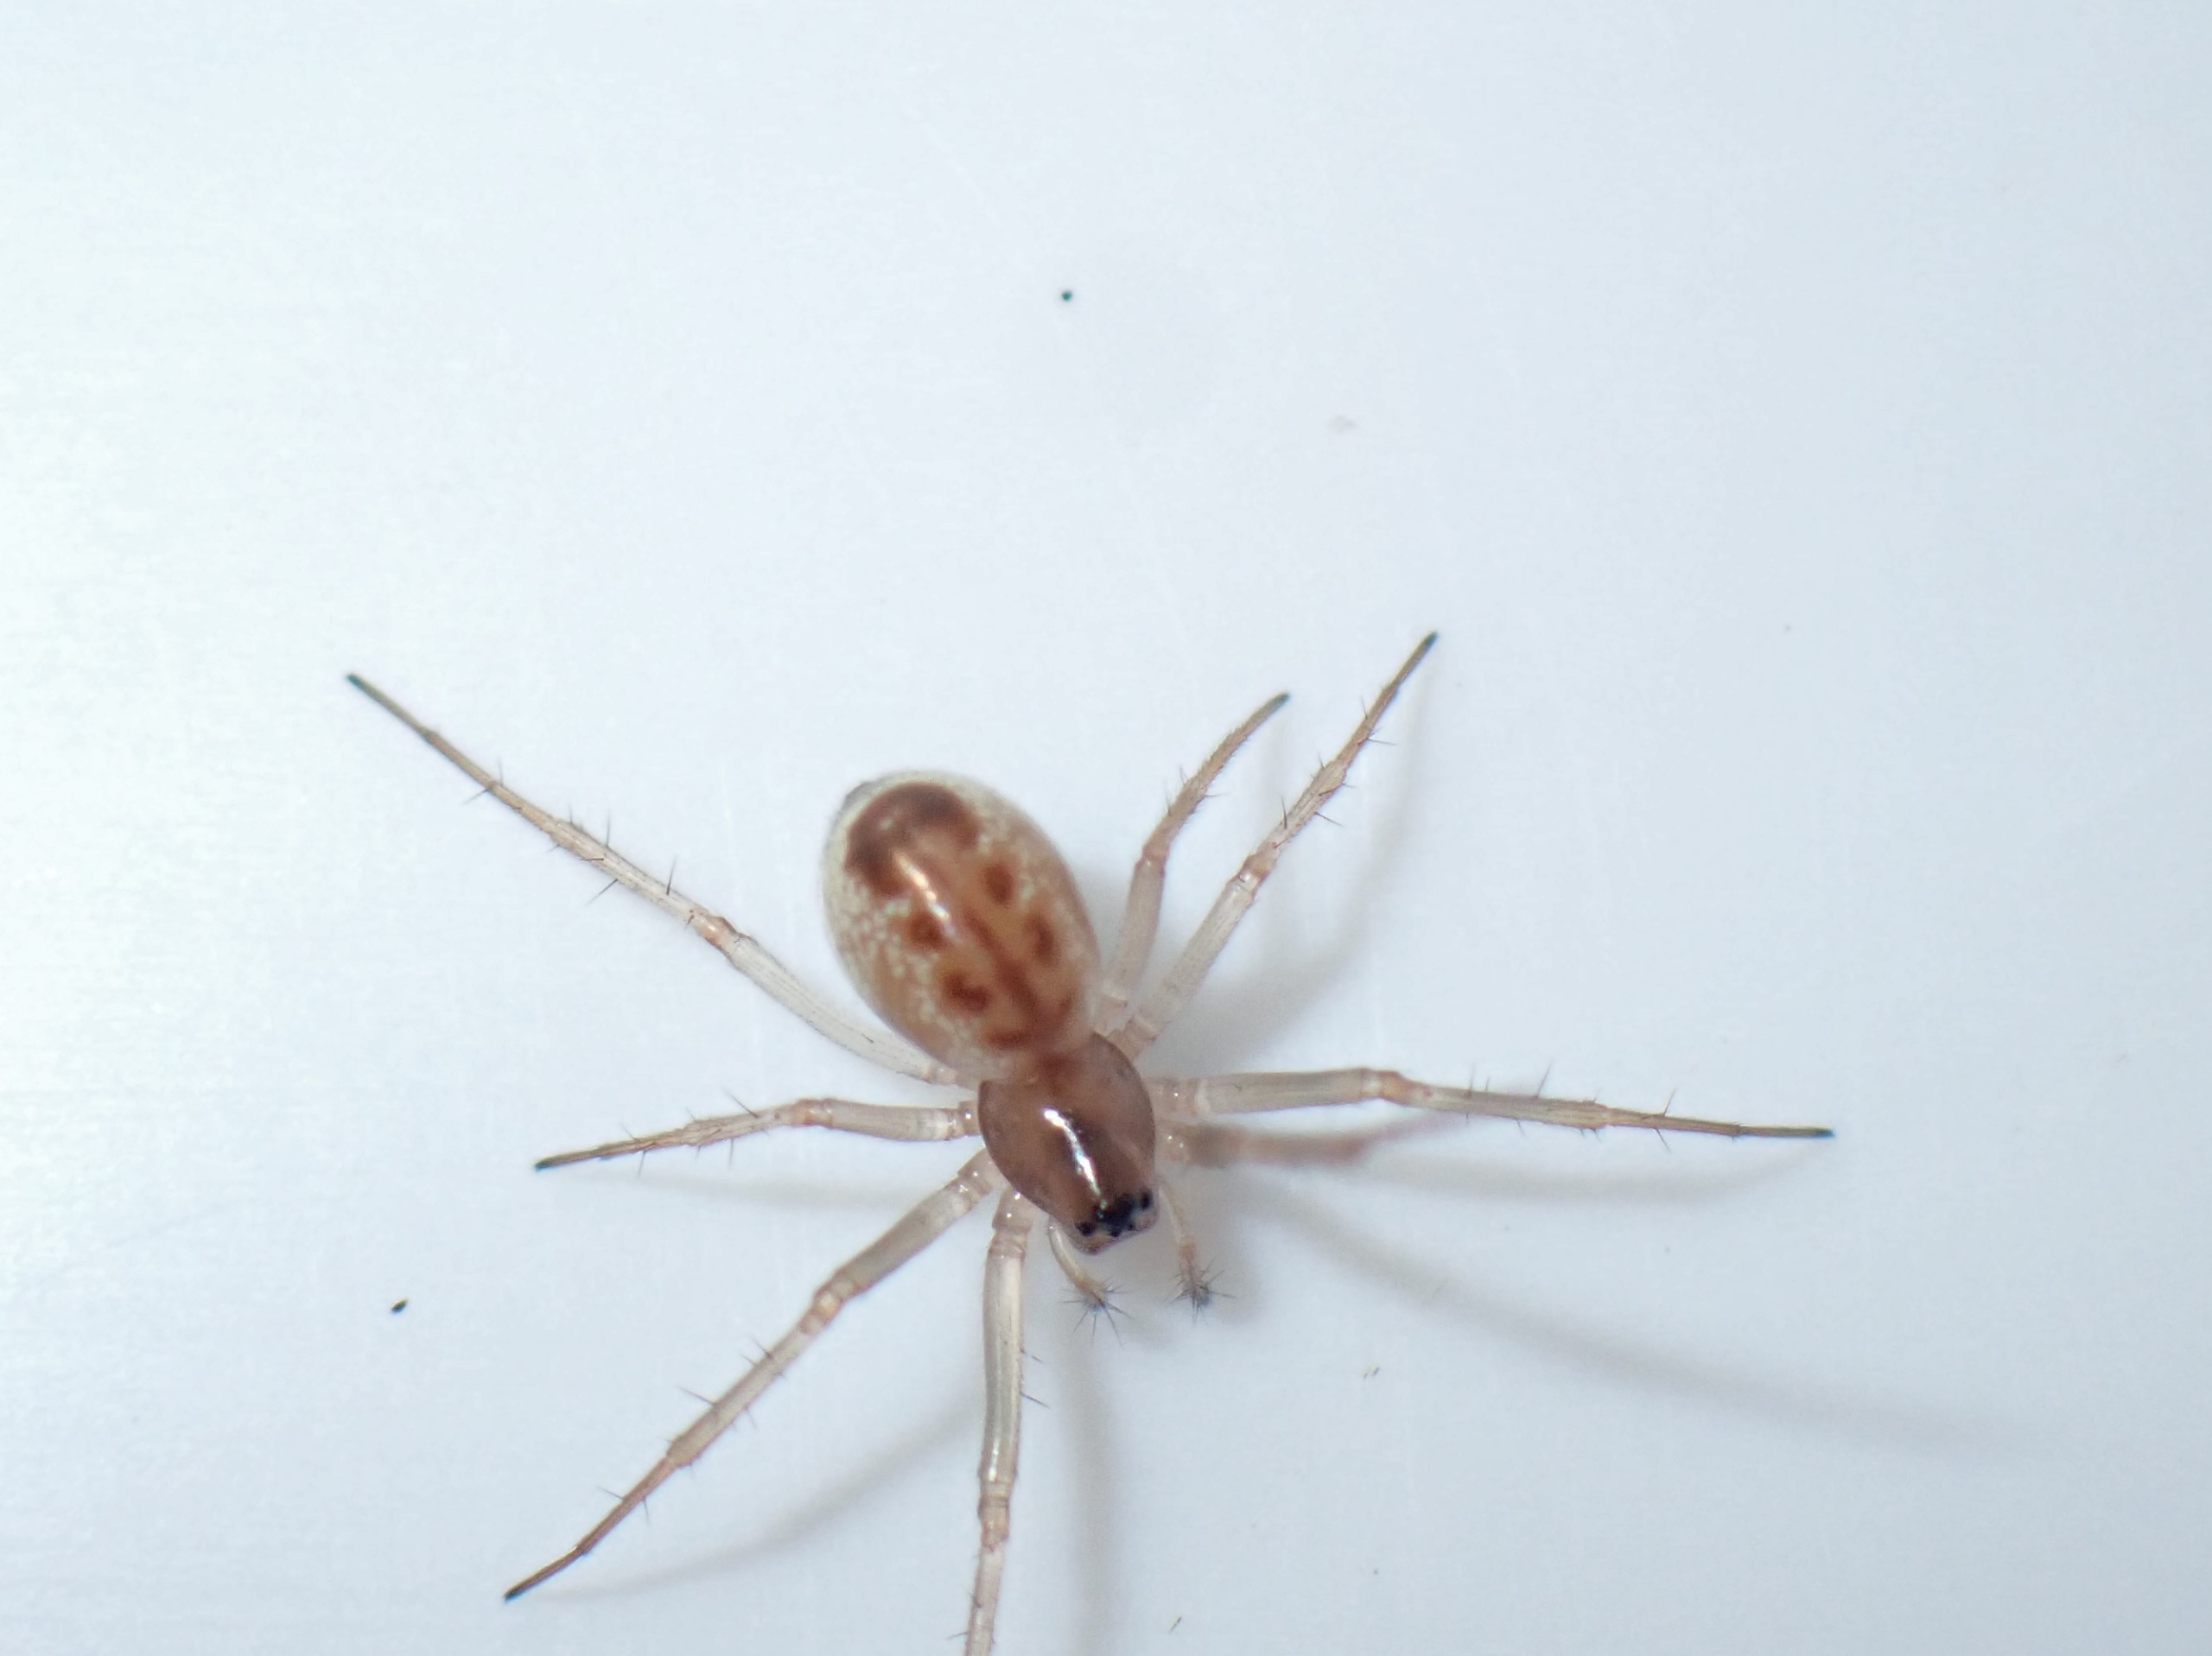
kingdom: Animalia
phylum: Arthropoda
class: Arachnida
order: Araneae
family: Linyphiidae
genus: Linyphia
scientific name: Linyphia hortensis
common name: Skovbaldakinspinder
